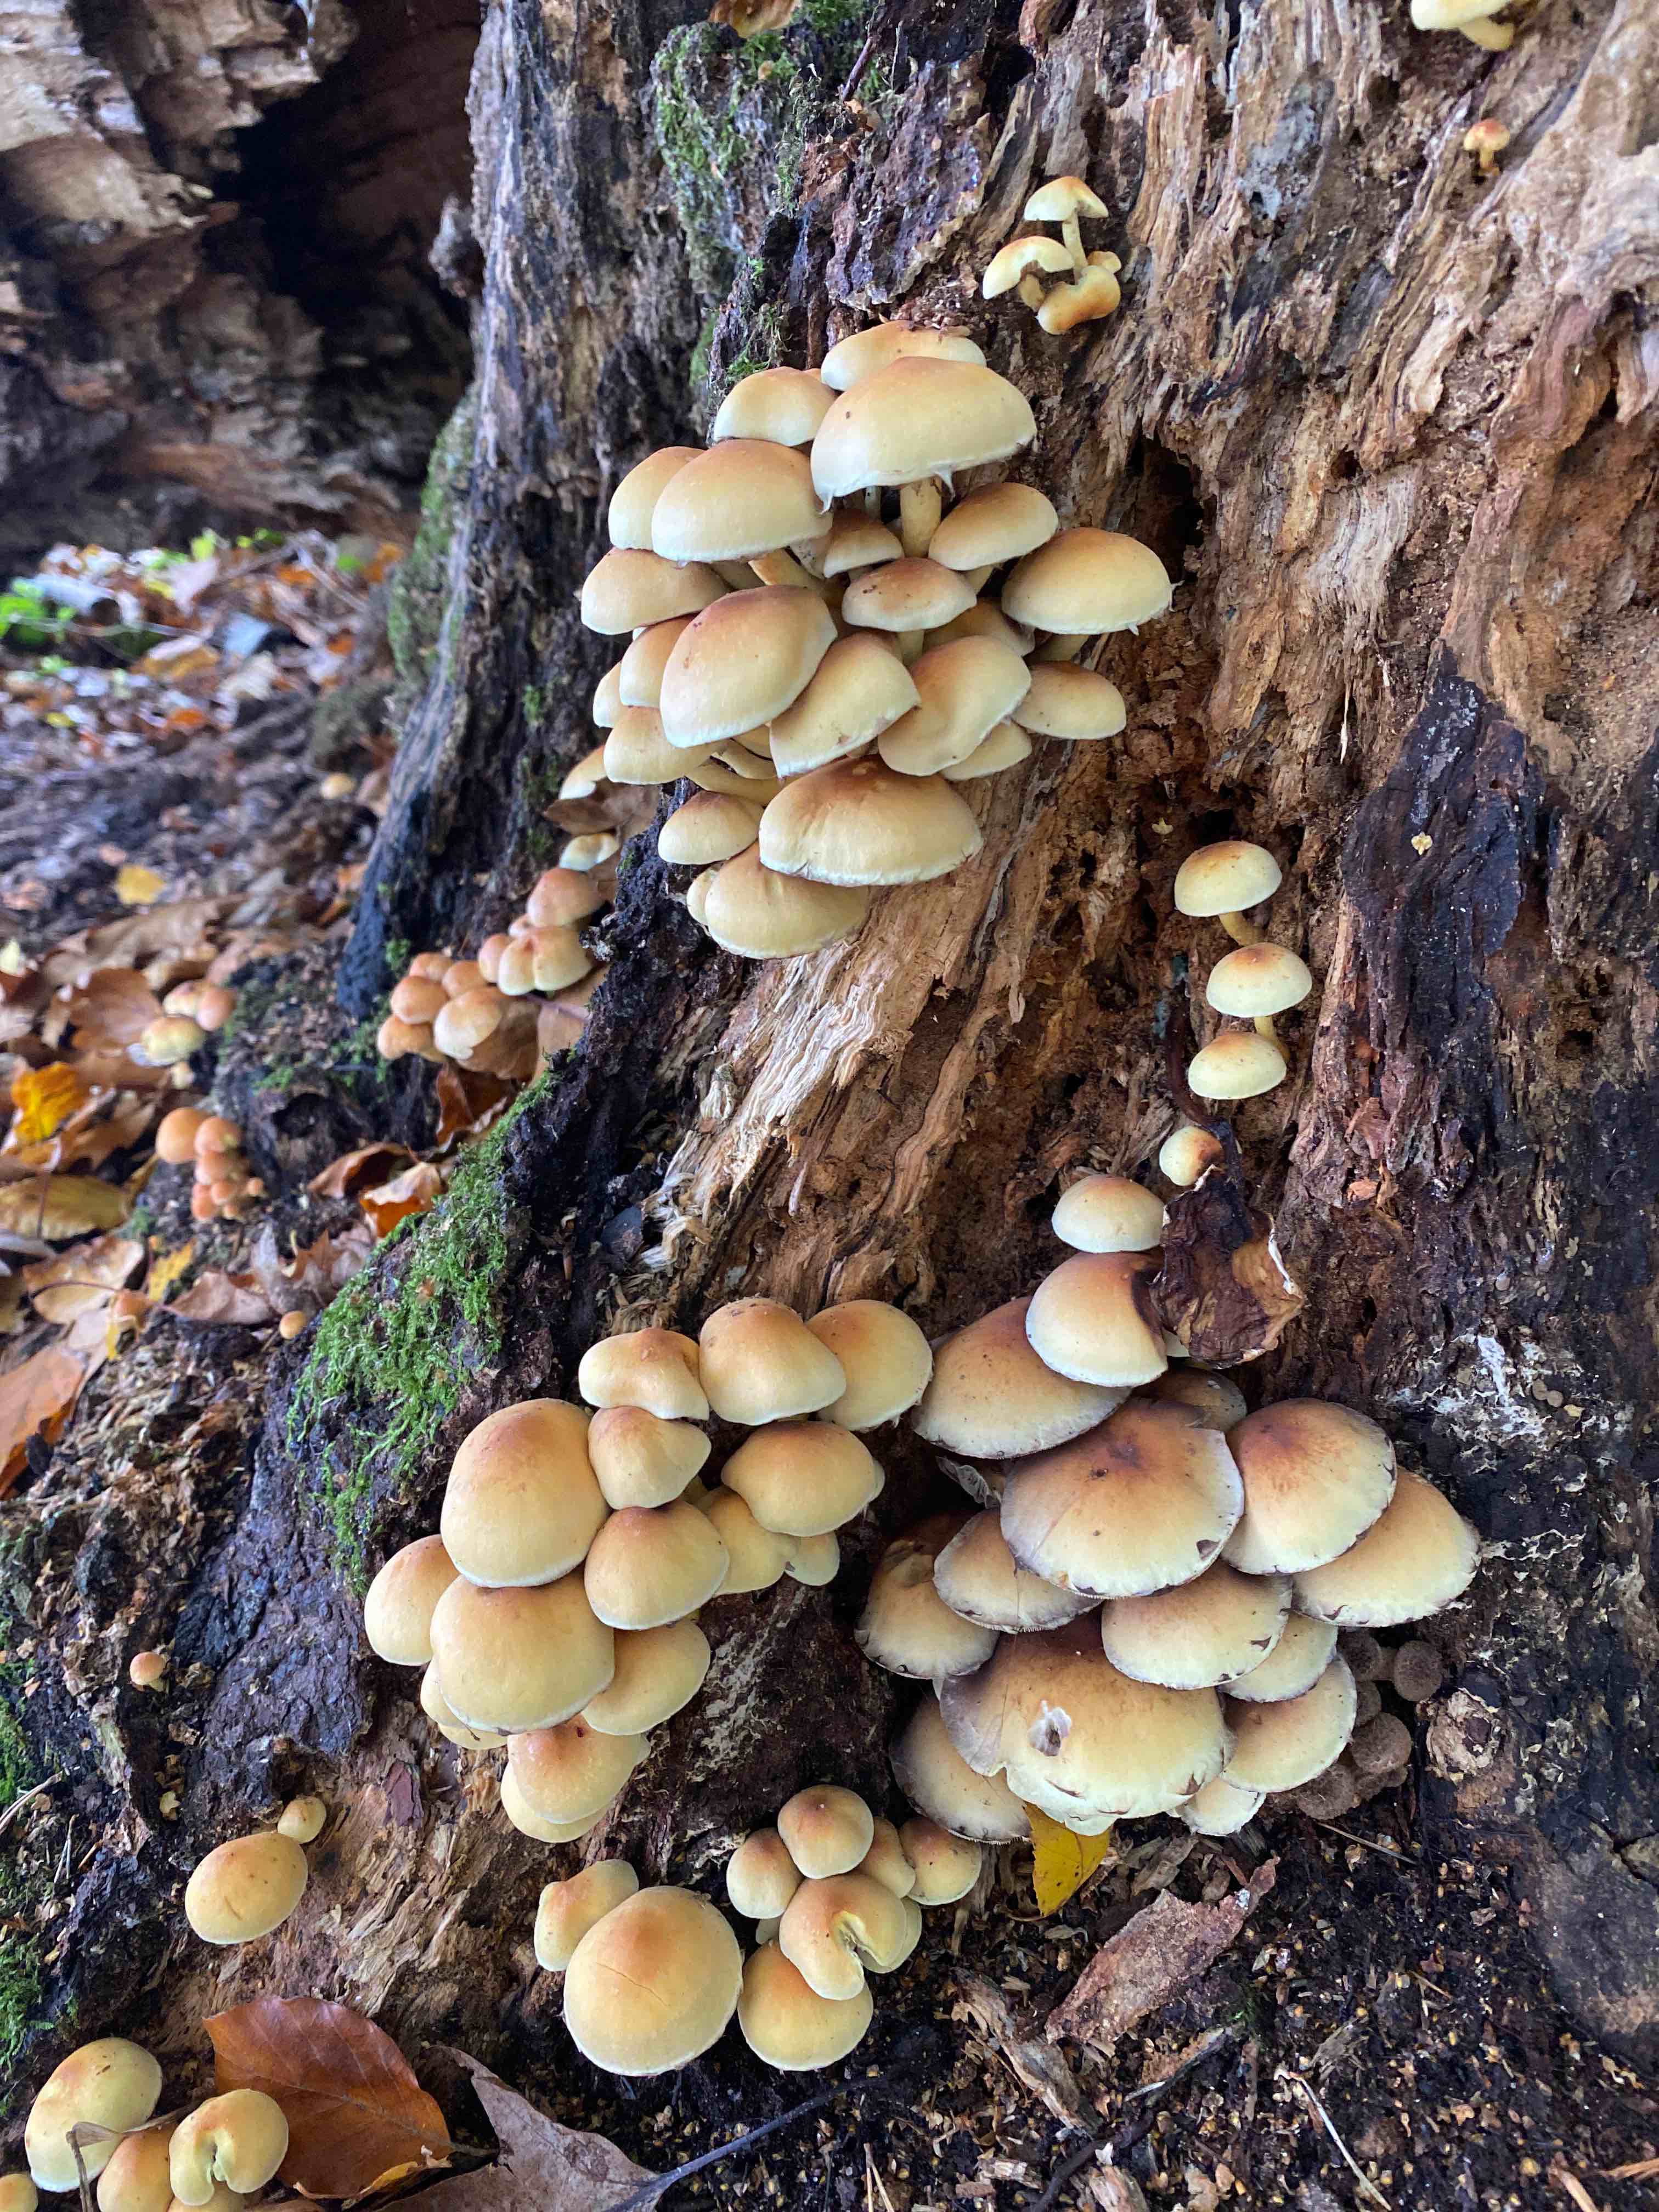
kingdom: Fungi
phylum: Basidiomycota
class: Agaricomycetes
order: Agaricales
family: Strophariaceae
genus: Hypholoma
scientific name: Hypholoma fasciculare
